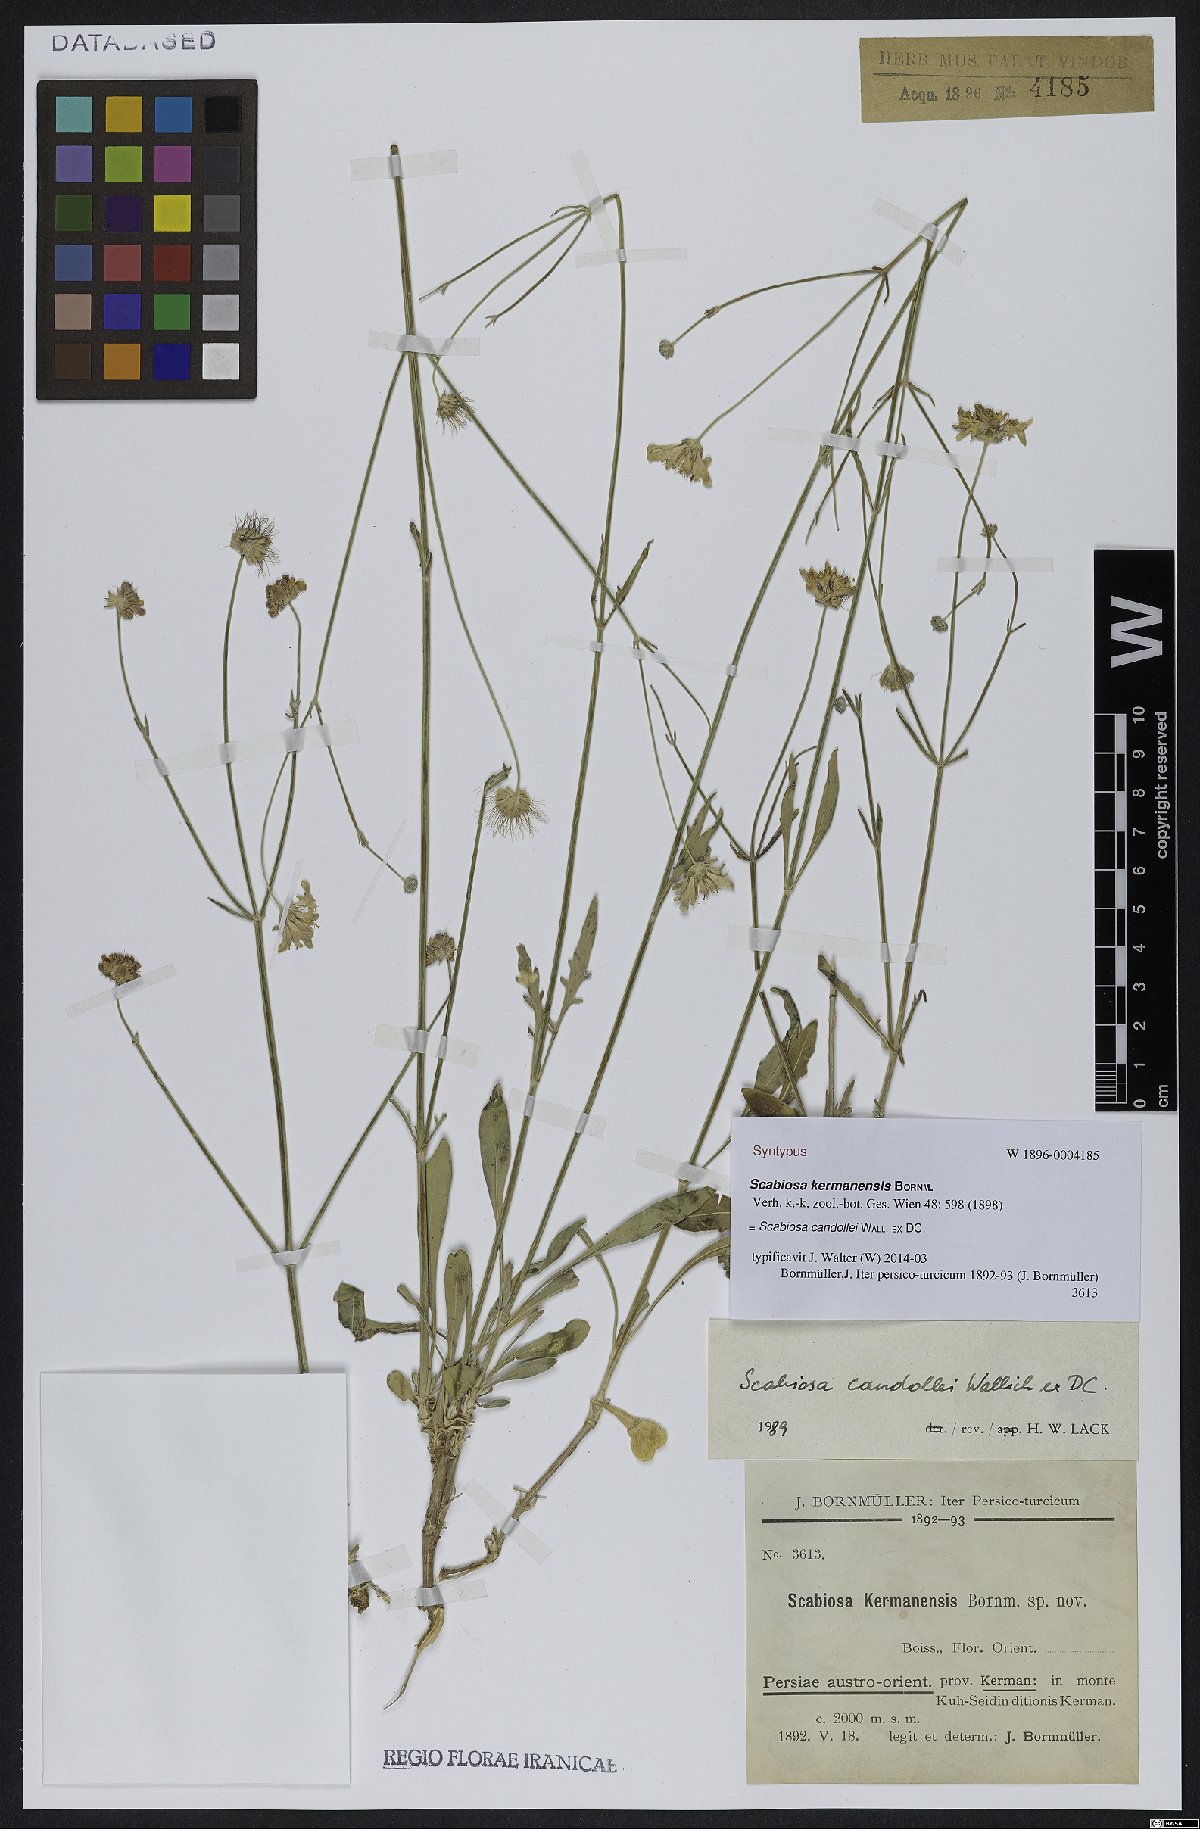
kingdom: Plantae
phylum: Tracheophyta
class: Magnoliopsida
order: Dipsacales
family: Caprifoliaceae
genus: Lomelosia
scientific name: Lomelosia candollei
